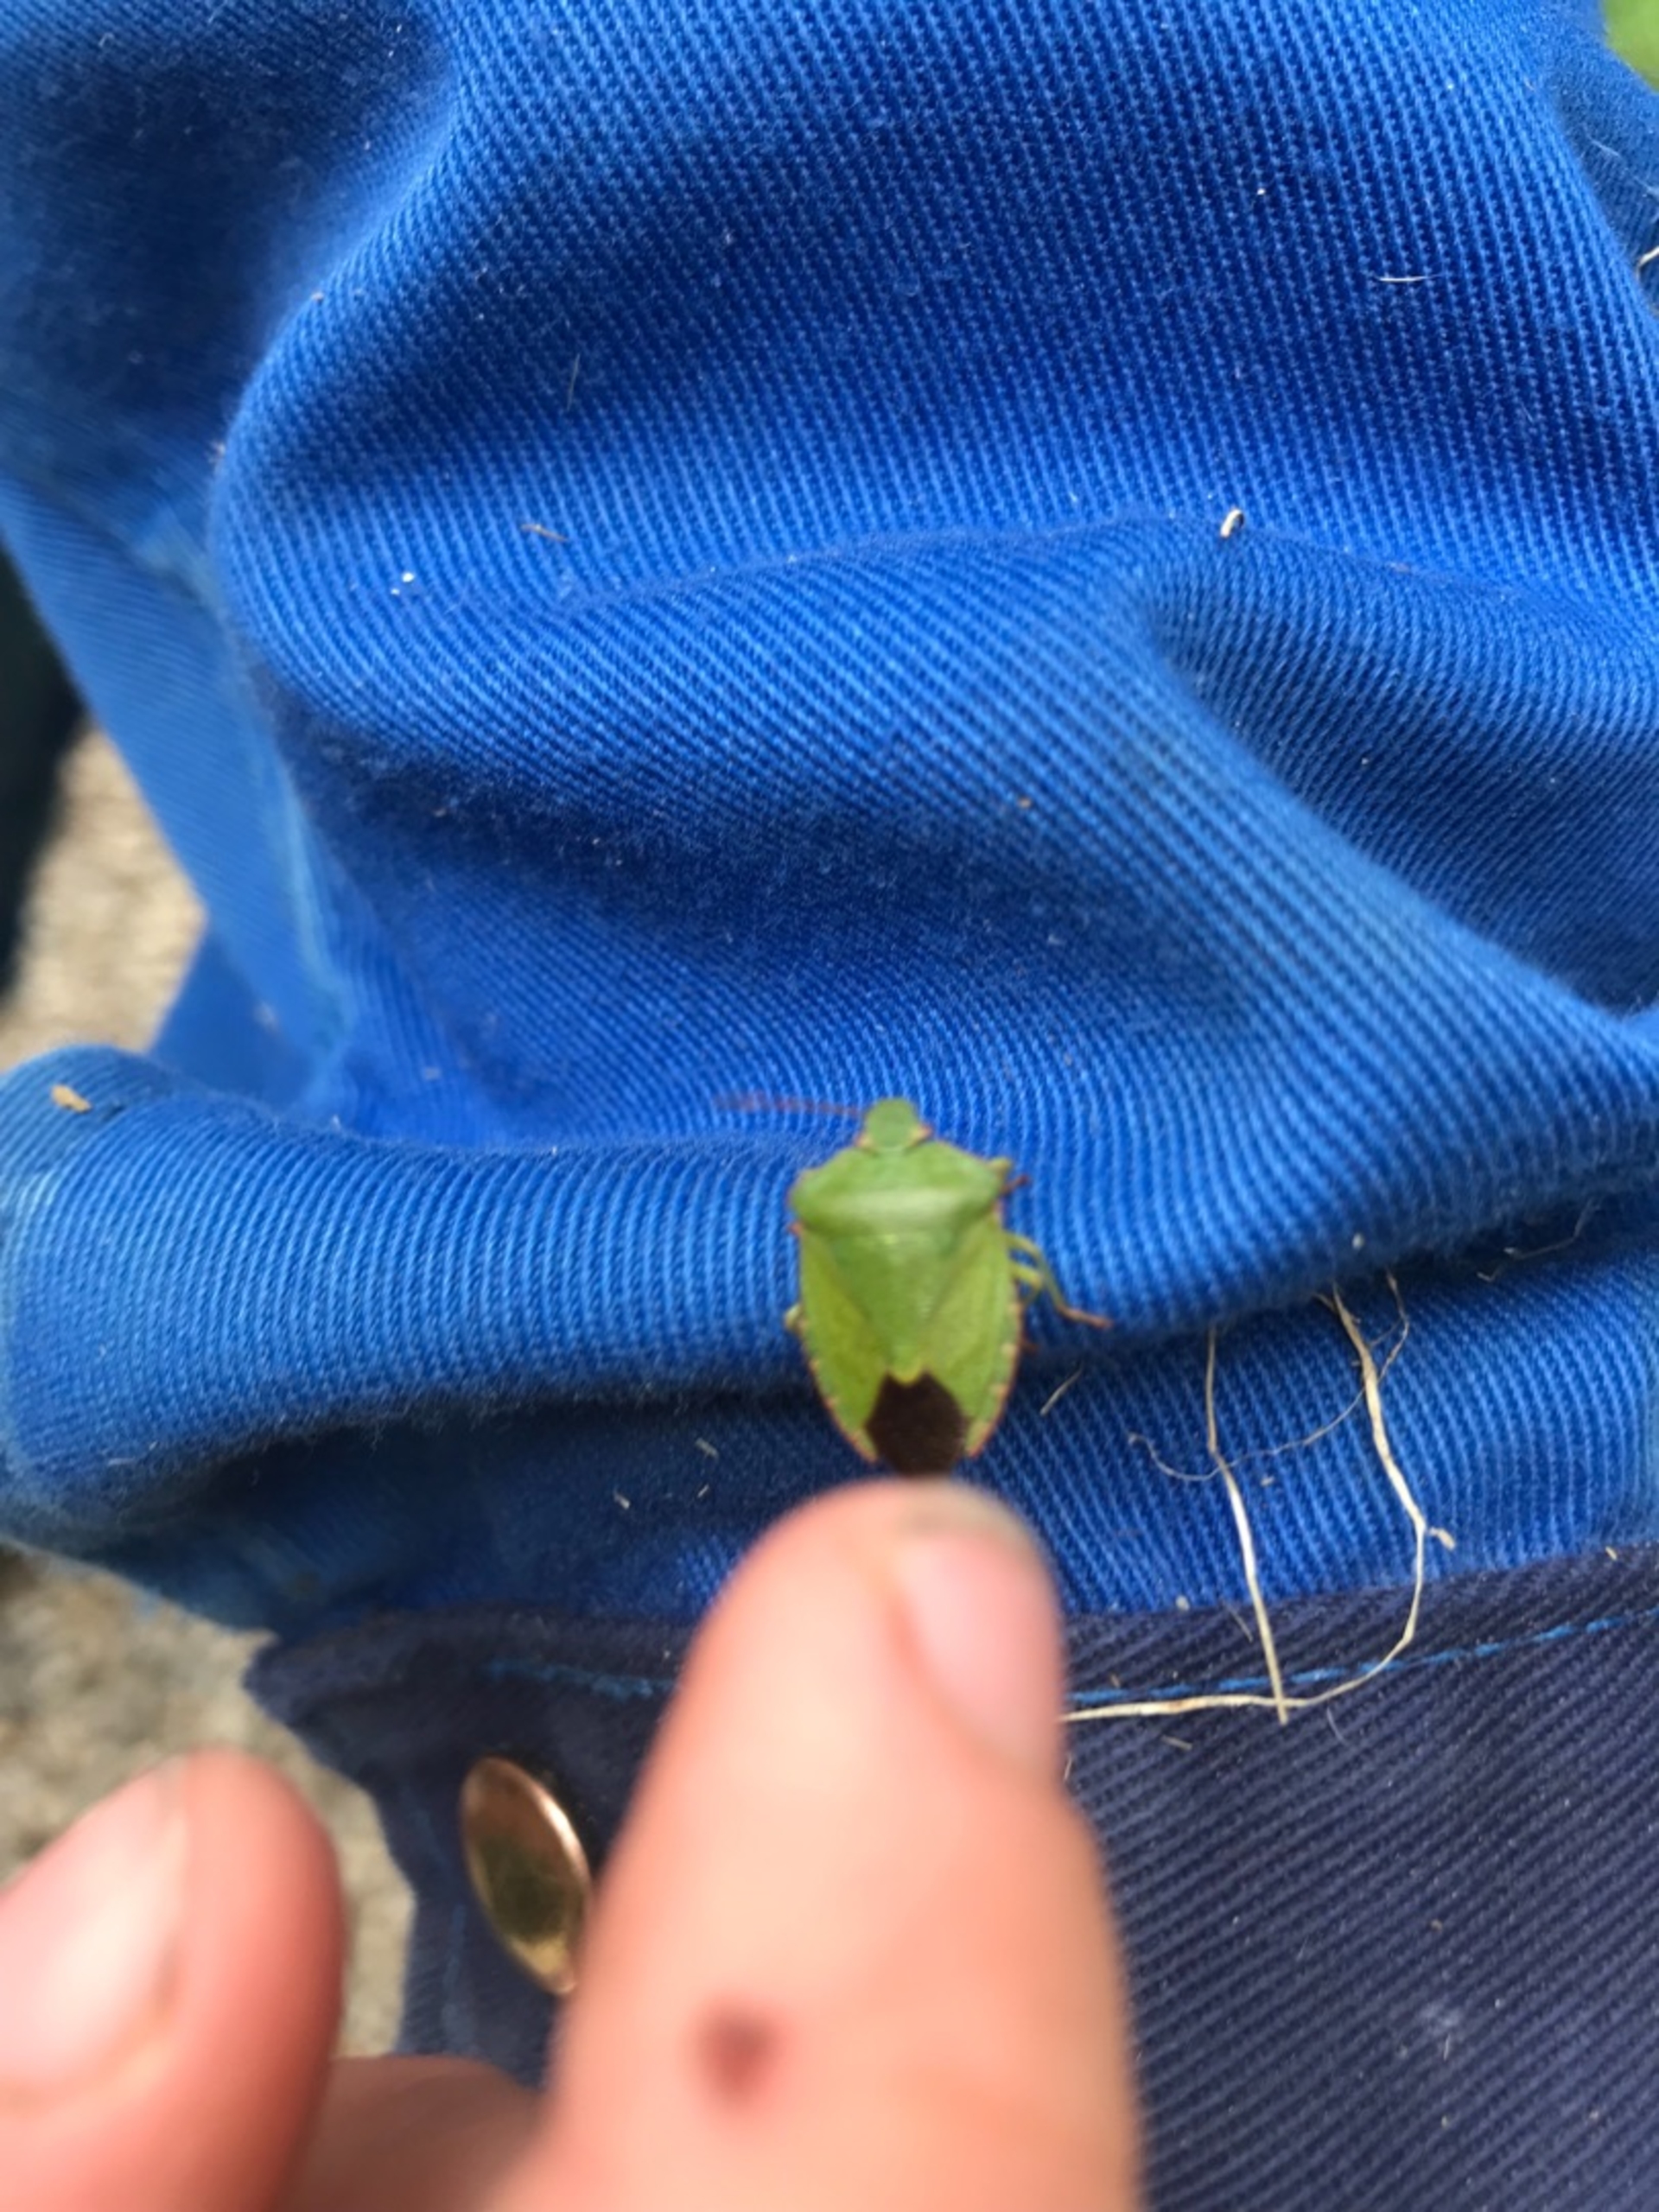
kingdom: Animalia
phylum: Arthropoda
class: Insecta
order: Hemiptera
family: Pentatomidae
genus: Palomena
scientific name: Palomena prasina
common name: Grøn bredtæge
